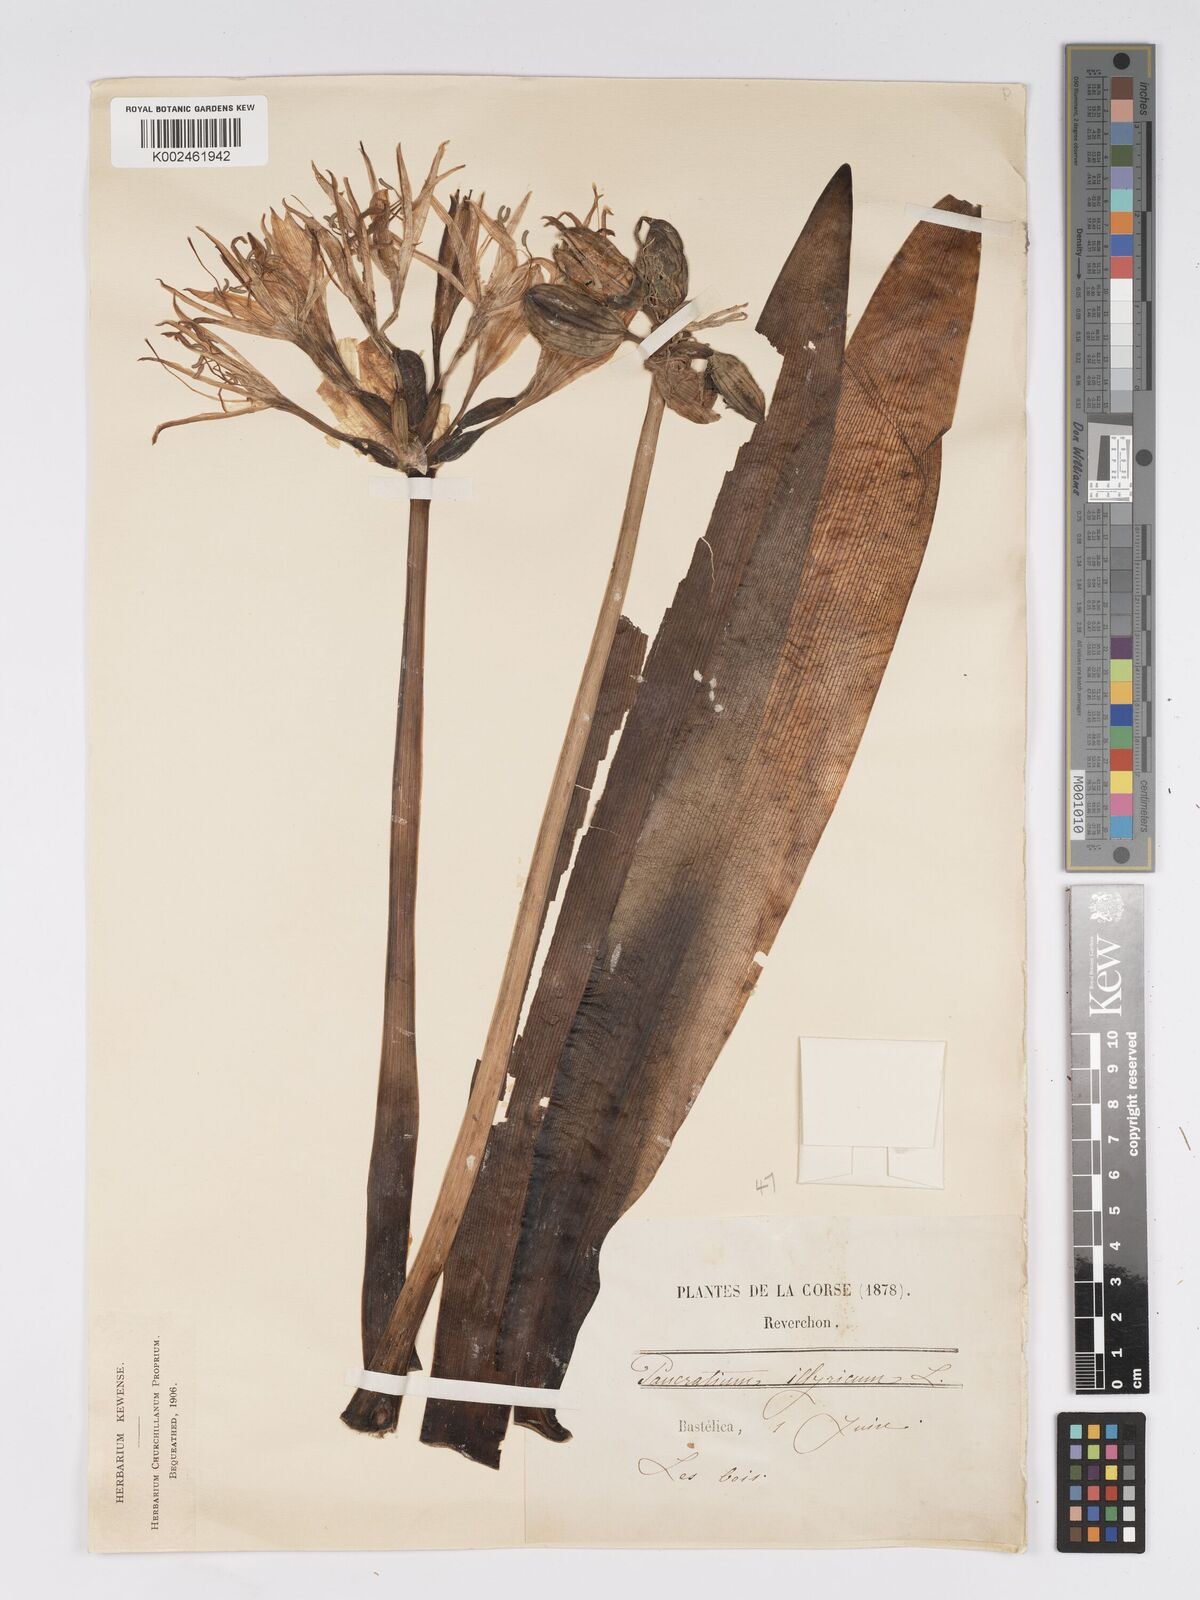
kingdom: Plantae
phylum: Tracheophyta
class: Liliopsida
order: Asparagales
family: Amaryllidaceae
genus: Pancratium
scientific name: Pancratium illyricum
